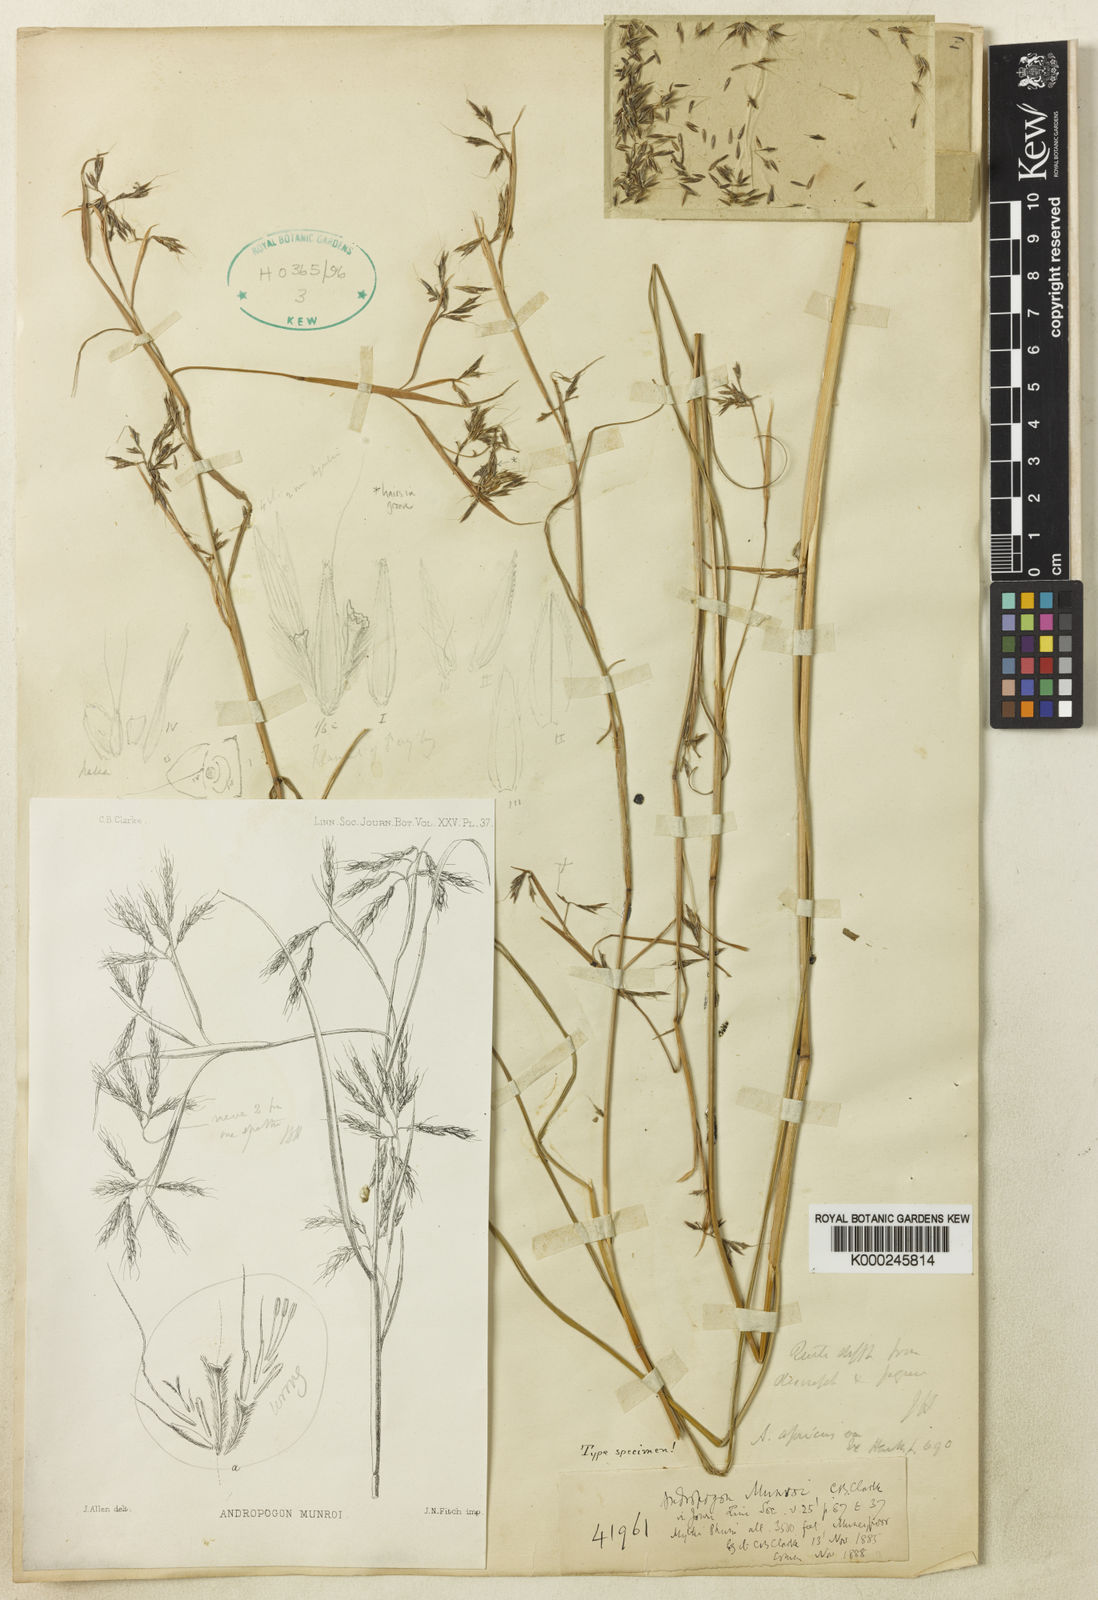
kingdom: Plantae
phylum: Tracheophyta
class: Liliopsida
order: Poales
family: Poaceae
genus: Andropogon
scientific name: Andropogon munroi
